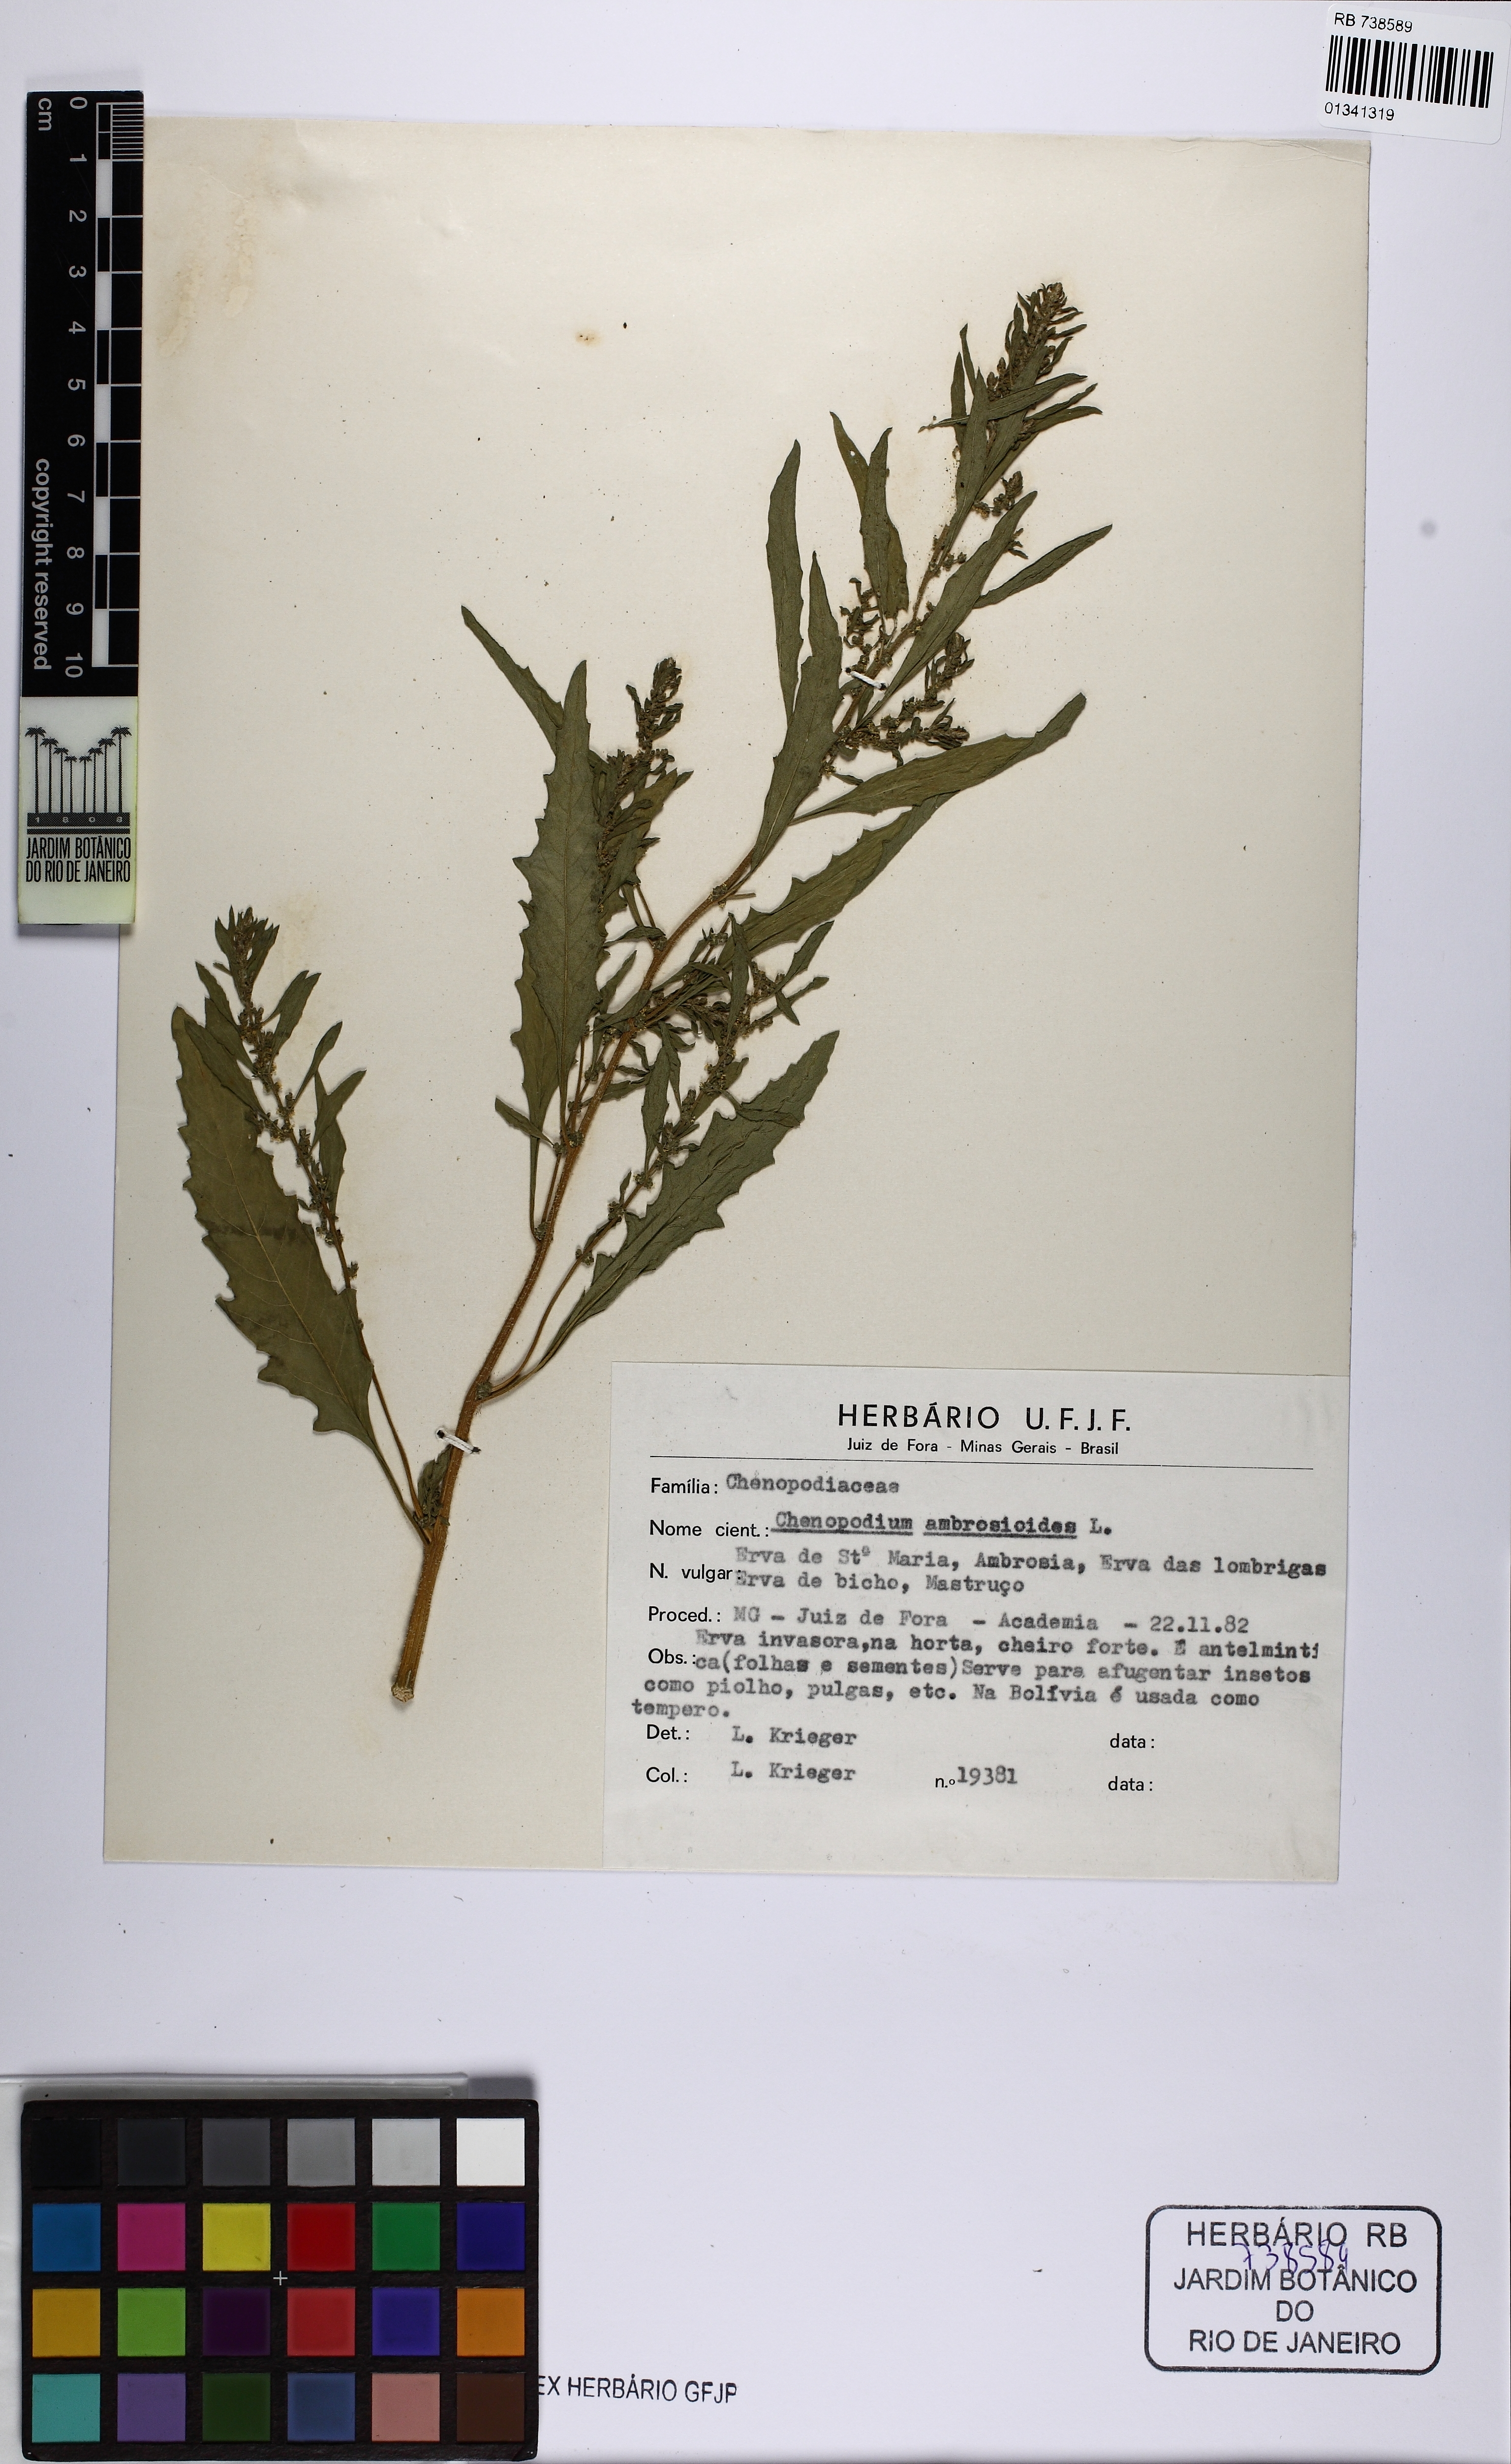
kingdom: Plantae
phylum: Tracheophyta
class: Magnoliopsida
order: Caryophyllales
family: Amaranthaceae
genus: Dysphania
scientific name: Dysphania ambrosioides
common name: Wormseed
